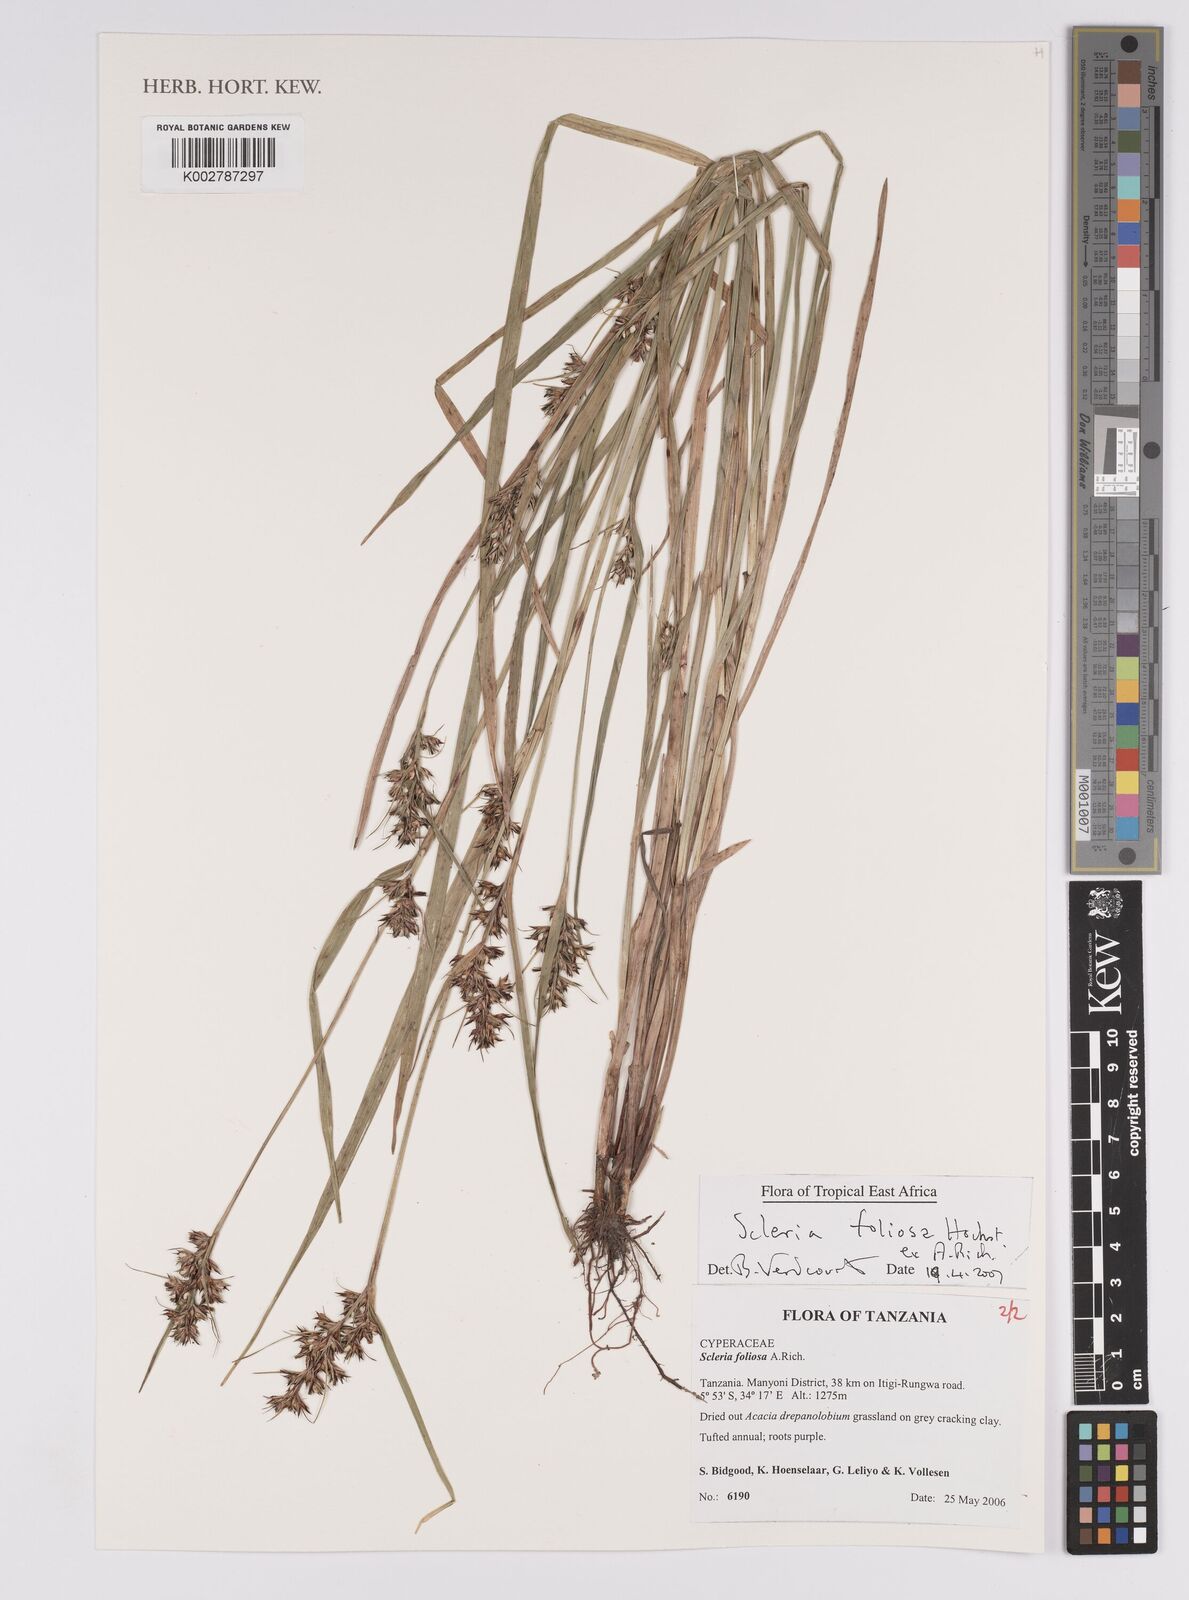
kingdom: Plantae
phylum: Tracheophyta
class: Liliopsida
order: Poales
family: Cyperaceae
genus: Scleria
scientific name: Scleria foliosa
